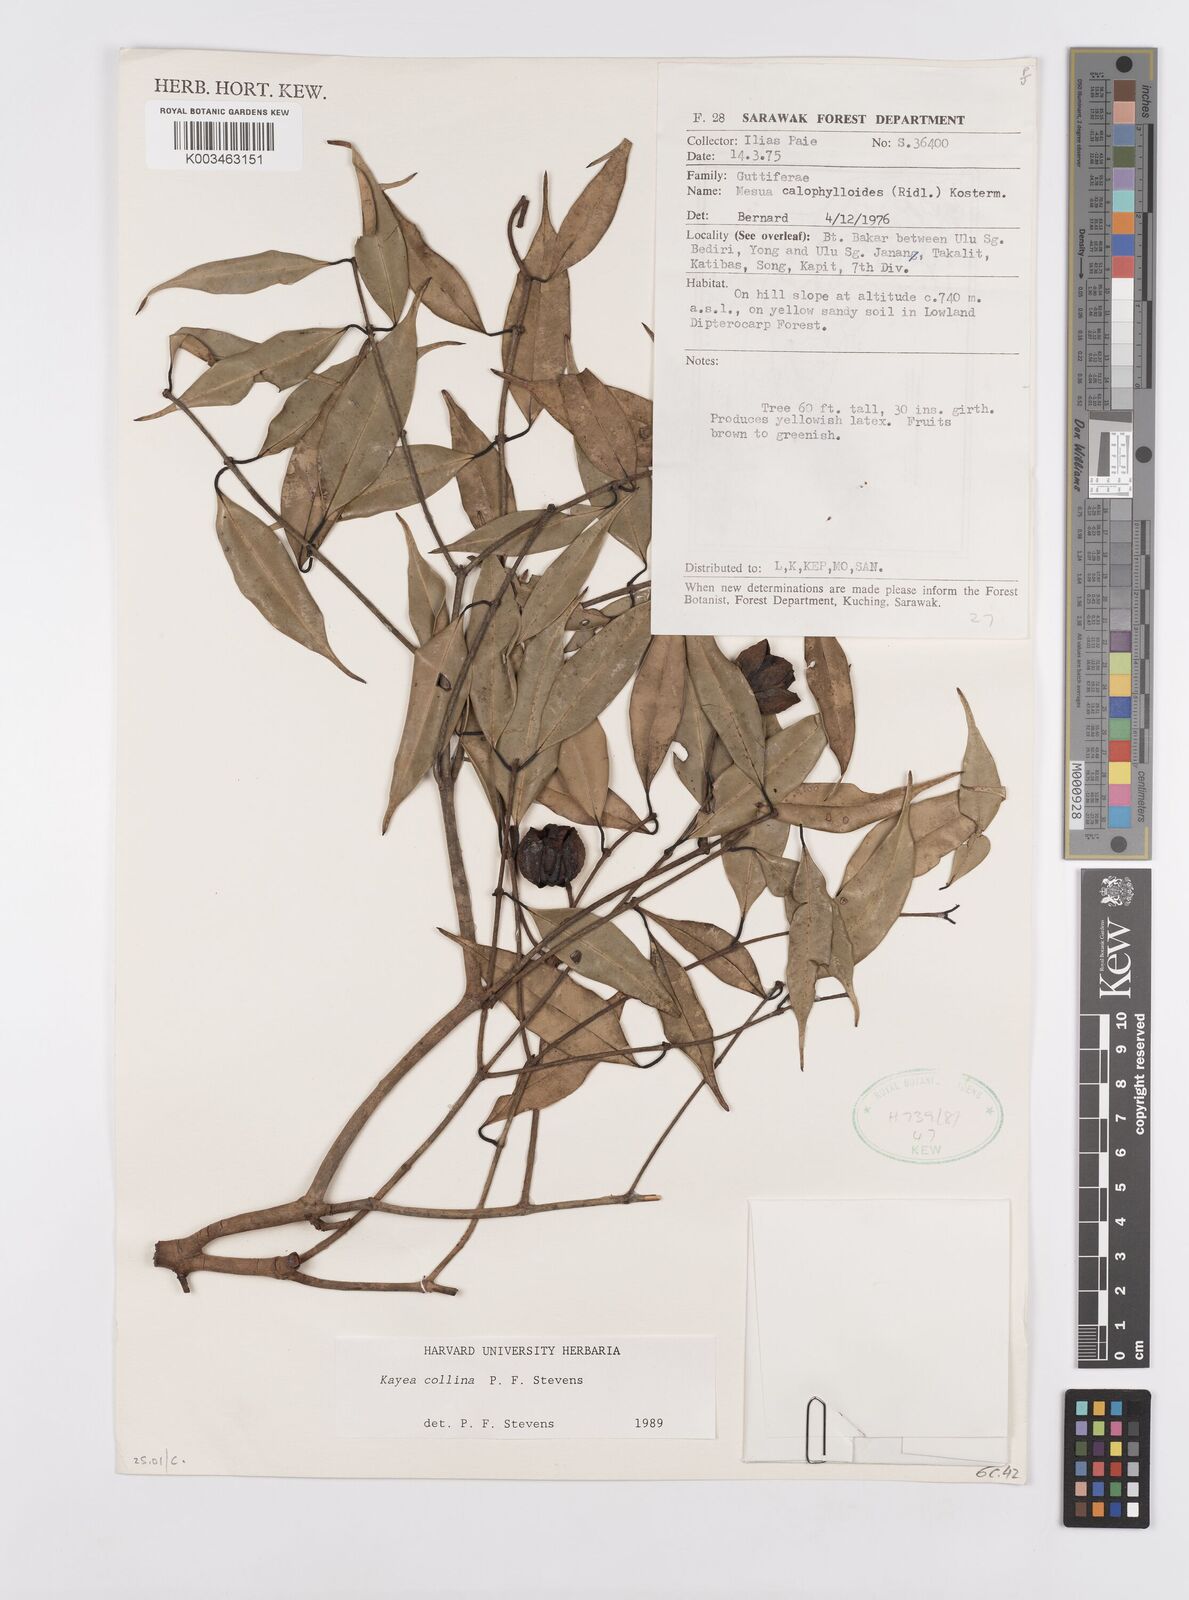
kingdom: Plantae
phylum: Tracheophyta
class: Magnoliopsida
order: Malpighiales
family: Calophyllaceae
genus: Kayea
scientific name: Kayea
